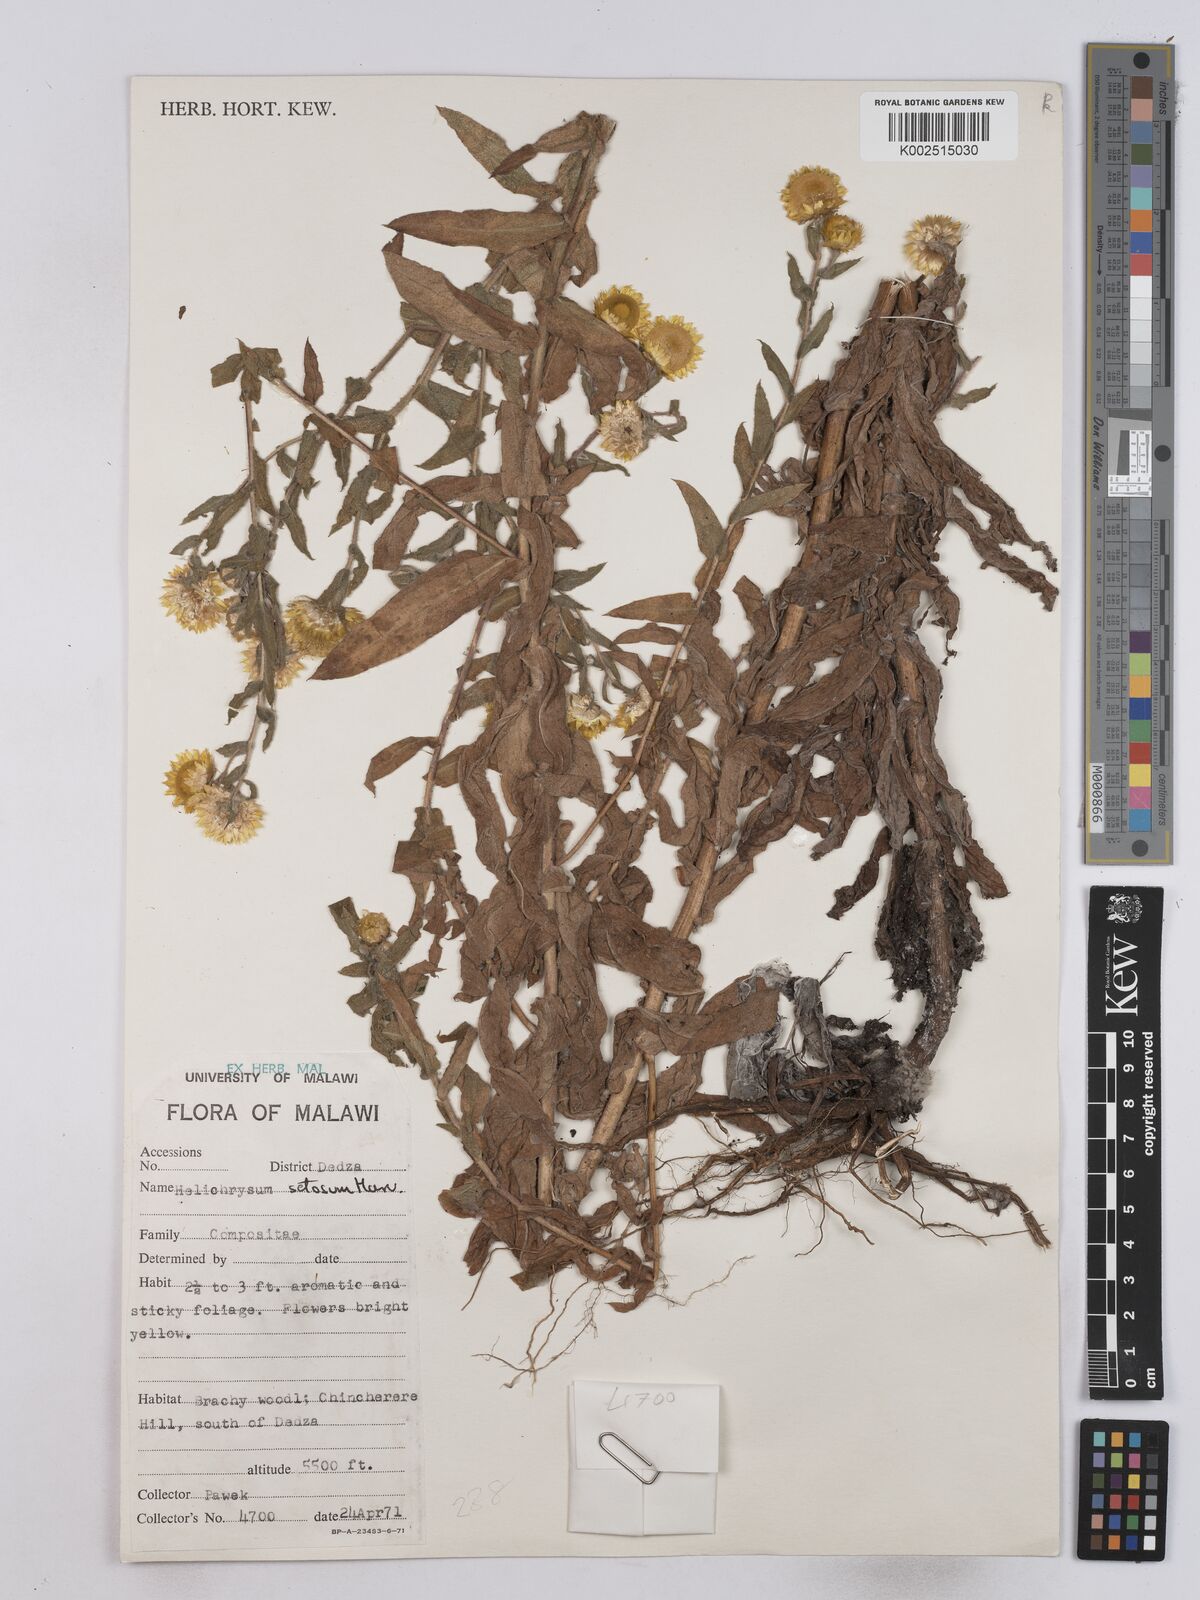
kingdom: Plantae
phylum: Tracheophyta
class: Magnoliopsida
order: Asterales
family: Asteraceae
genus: Helichrysum
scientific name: Helichrysum setosum
